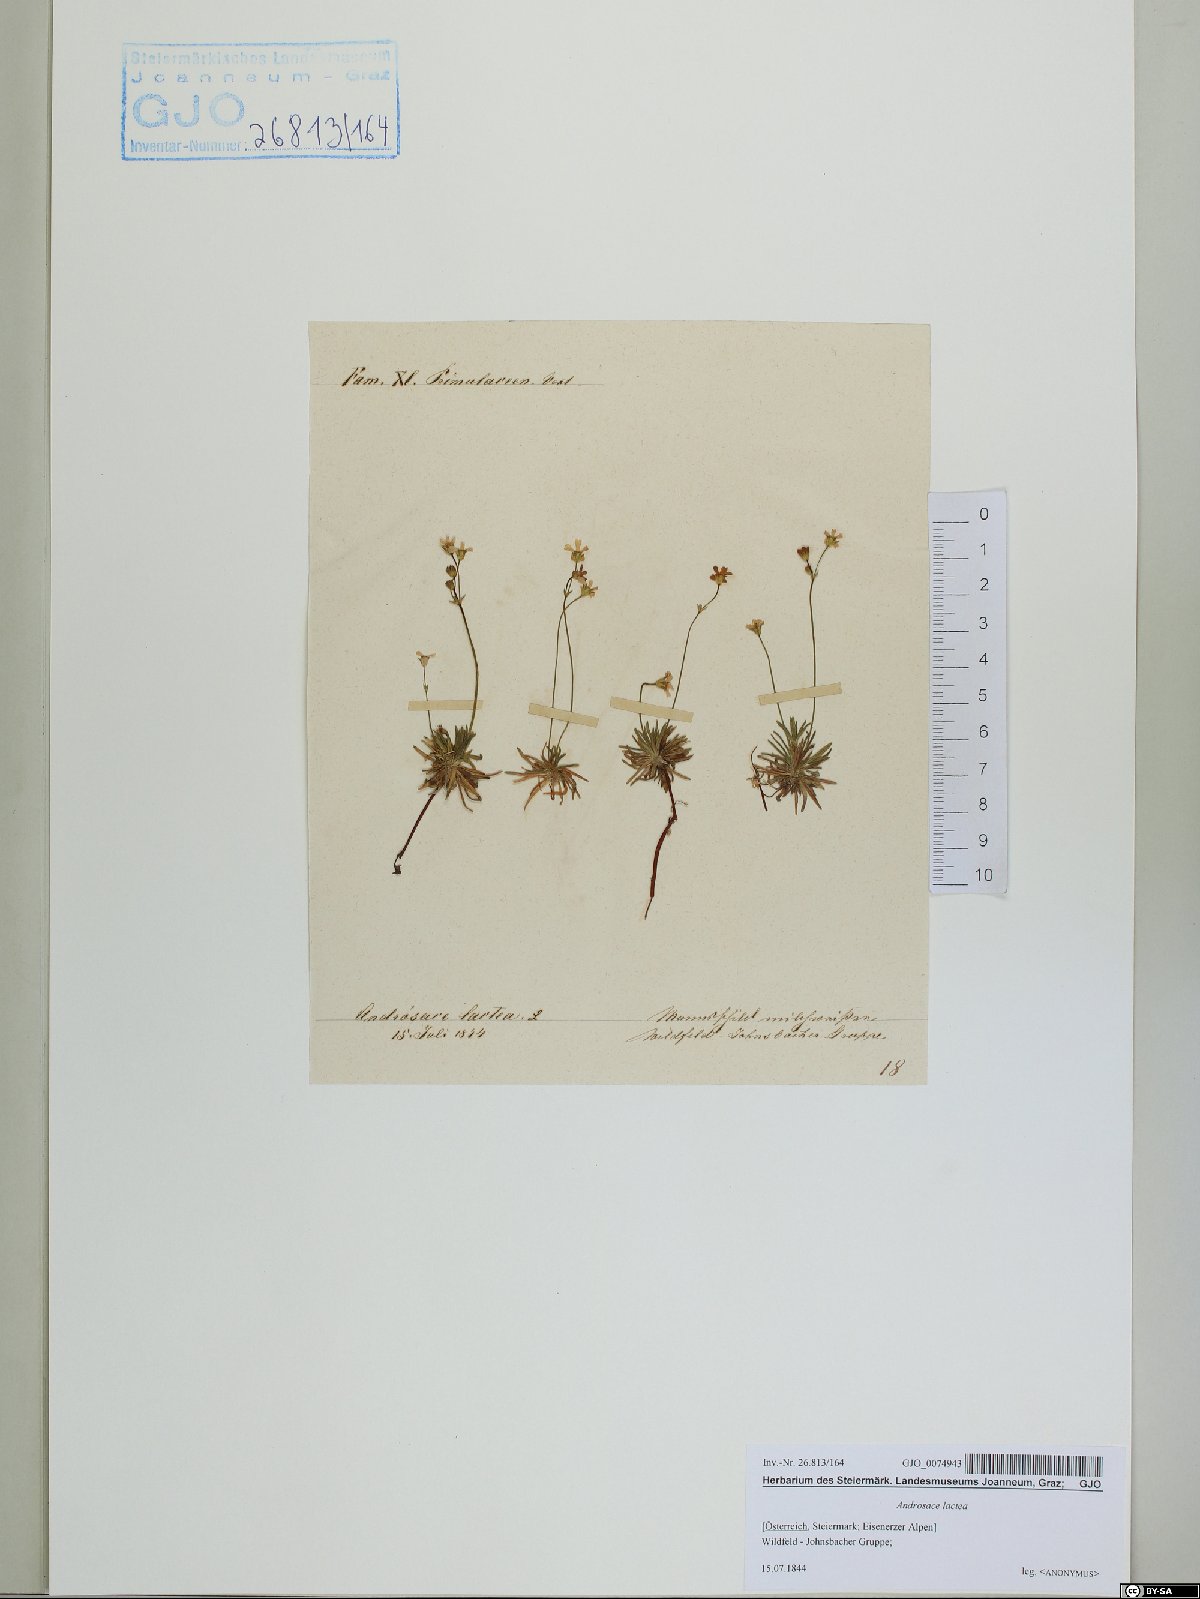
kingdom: Plantae
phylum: Tracheophyta
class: Magnoliopsida
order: Ericales
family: Primulaceae
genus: Androsace
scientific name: Androsace lactea
